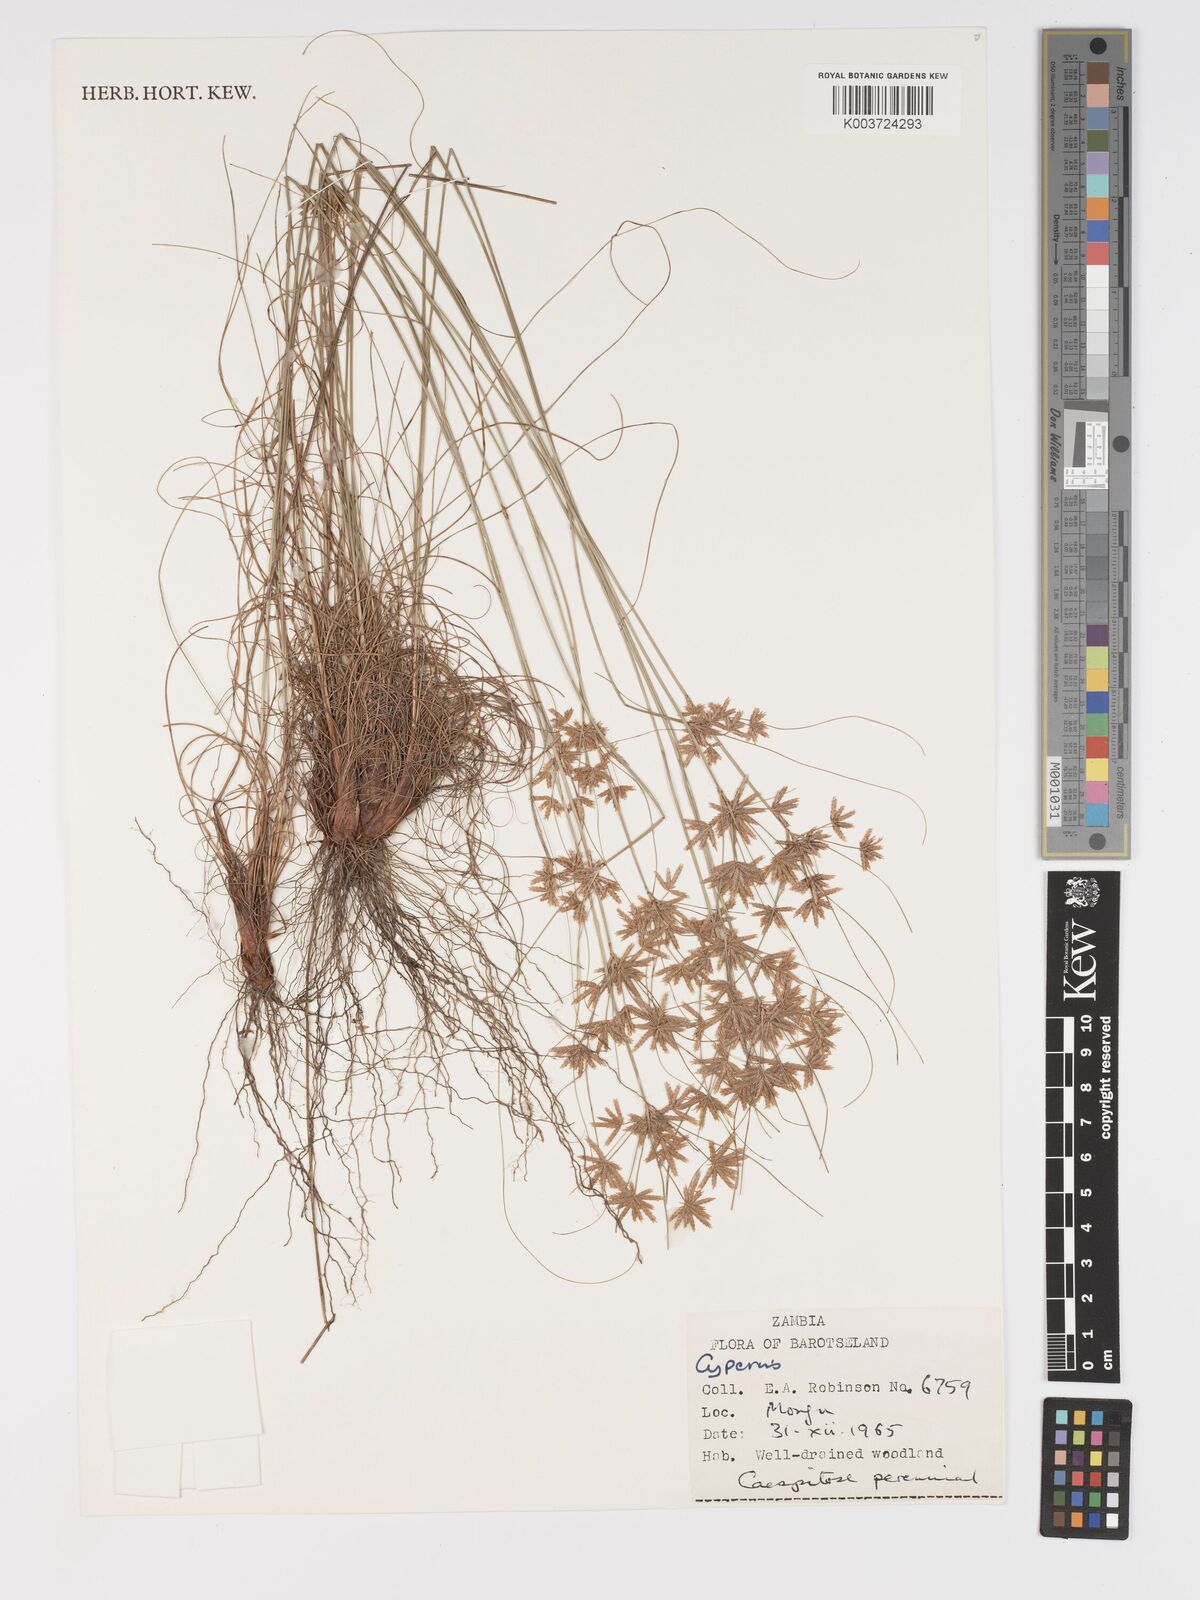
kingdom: Plantae
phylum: Tracheophyta
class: Liliopsida
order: Poales
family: Cyperaceae
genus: Cyperus
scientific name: Cyperus
